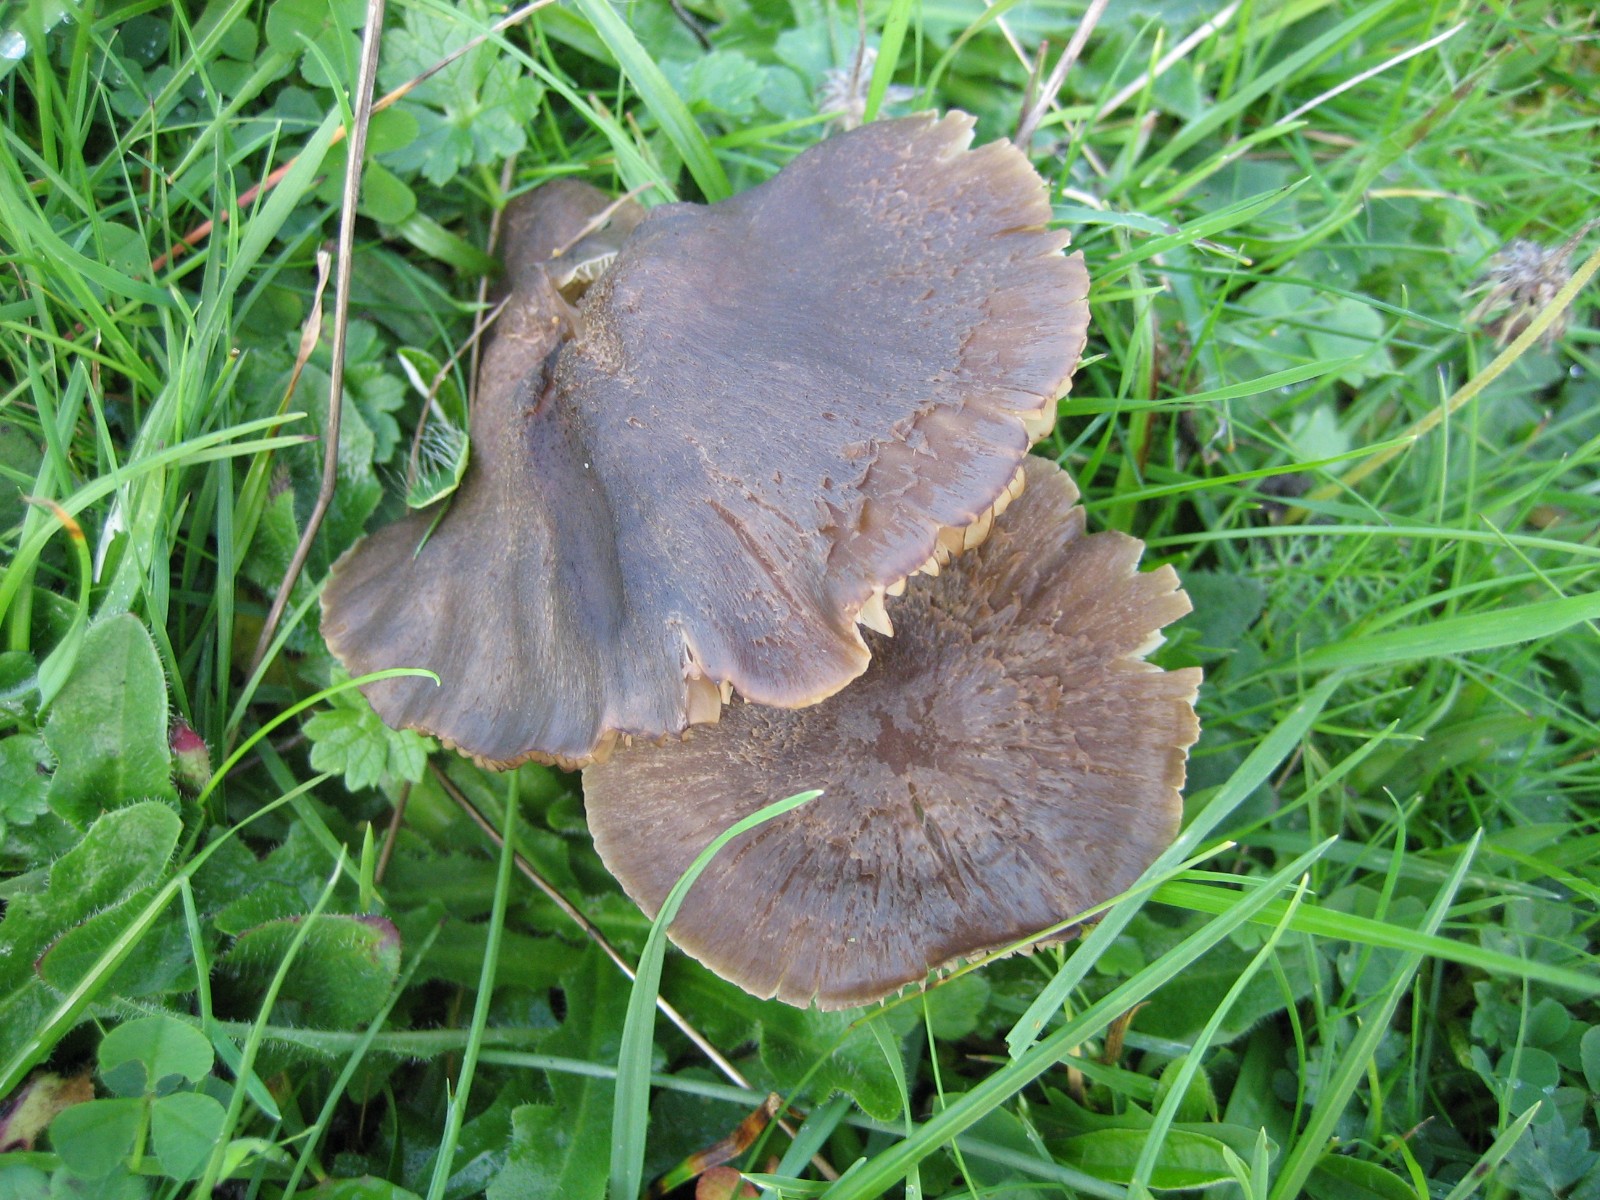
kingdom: Fungi
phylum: Basidiomycota
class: Agaricomycetes
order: Agaricales
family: Hygrophoraceae
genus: Neohygrocybe
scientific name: Neohygrocybe nitrata
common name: stinkende vokshat
